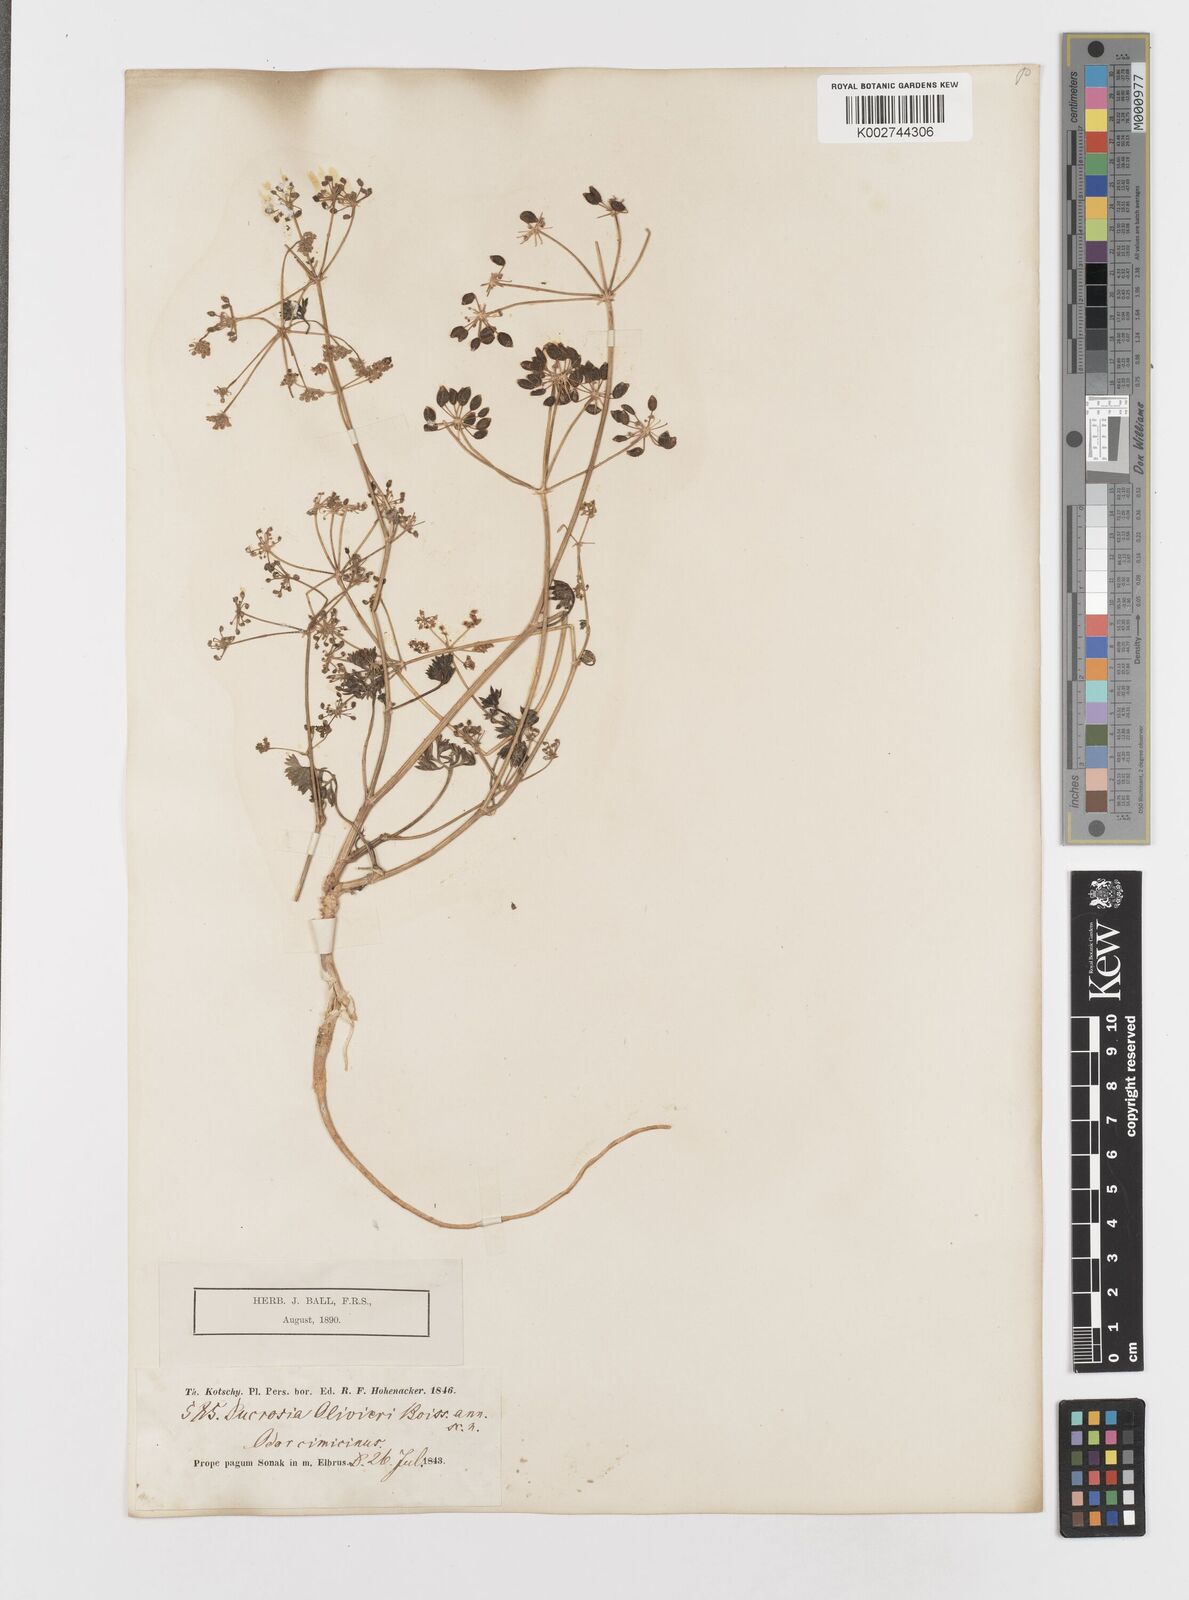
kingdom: Plantae
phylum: Tracheophyta
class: Magnoliopsida
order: Apiales
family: Apiaceae
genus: Ducrosia
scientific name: Ducrosia anethifolia
